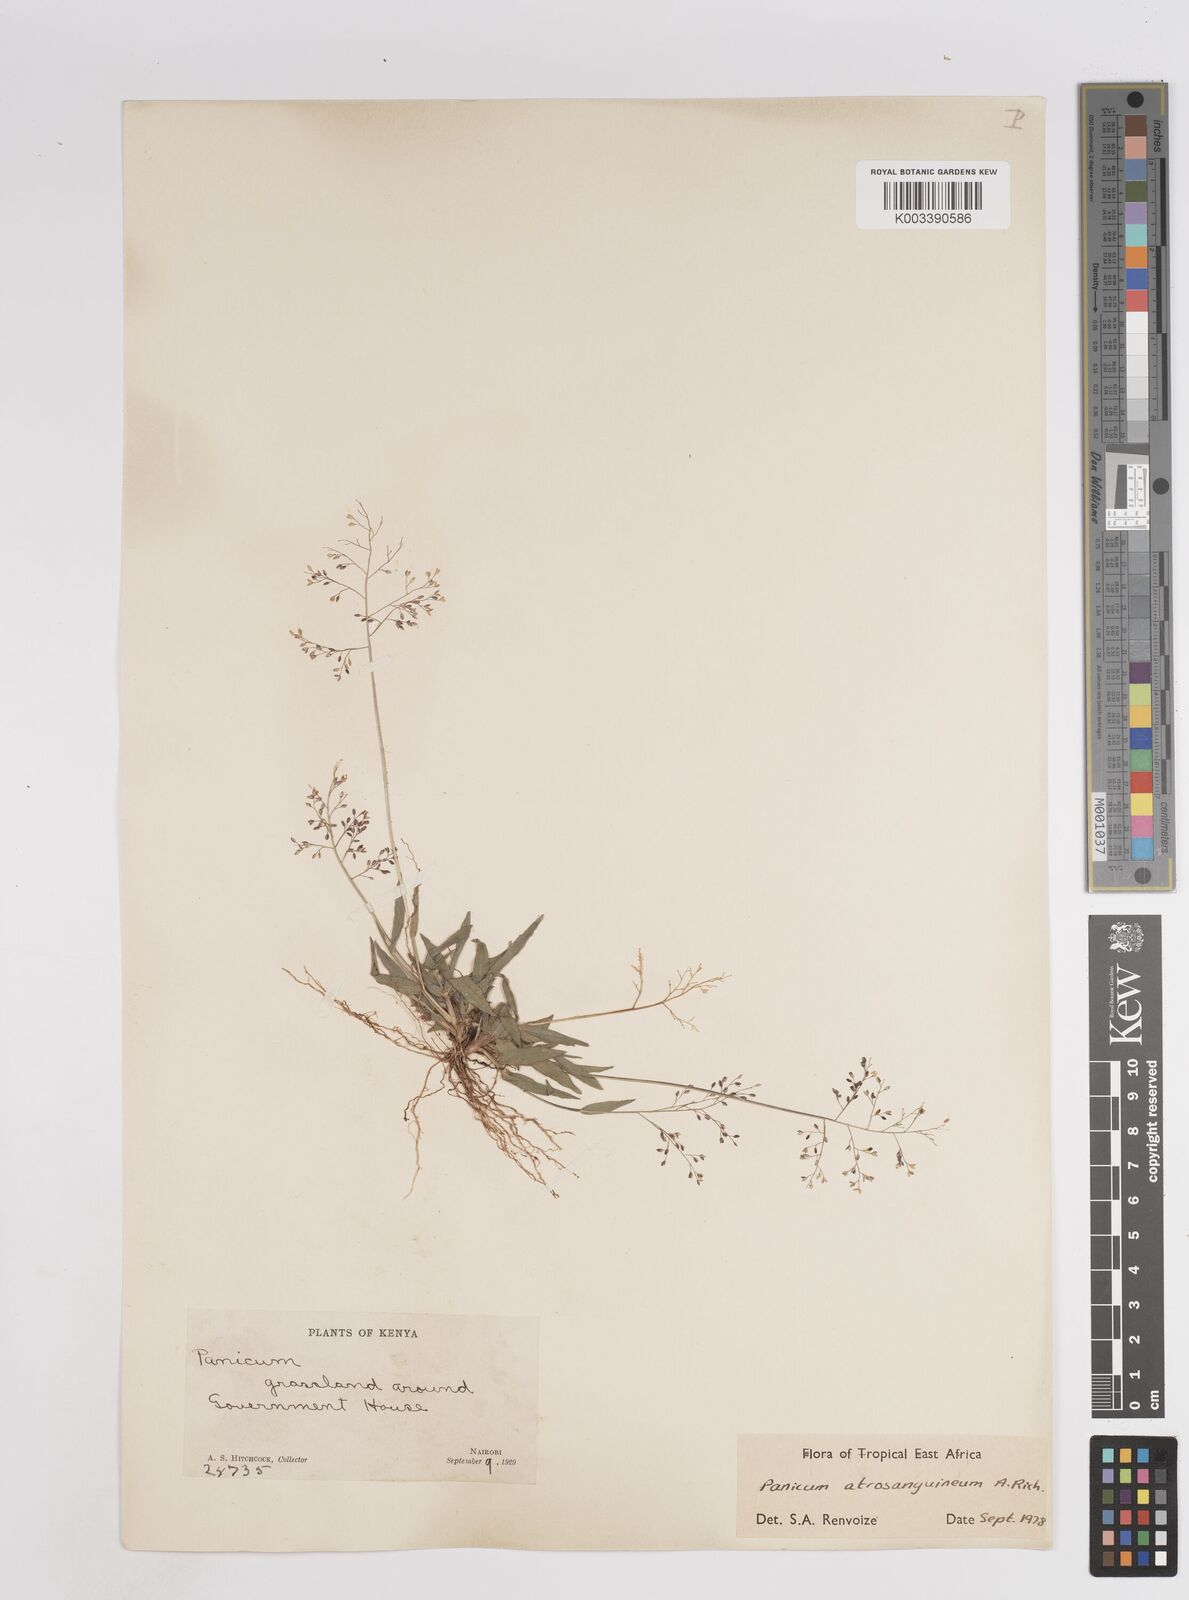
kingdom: Plantae
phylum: Tracheophyta
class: Liliopsida
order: Poales
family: Poaceae
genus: Panicum
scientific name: Panicum atrosanguineum
